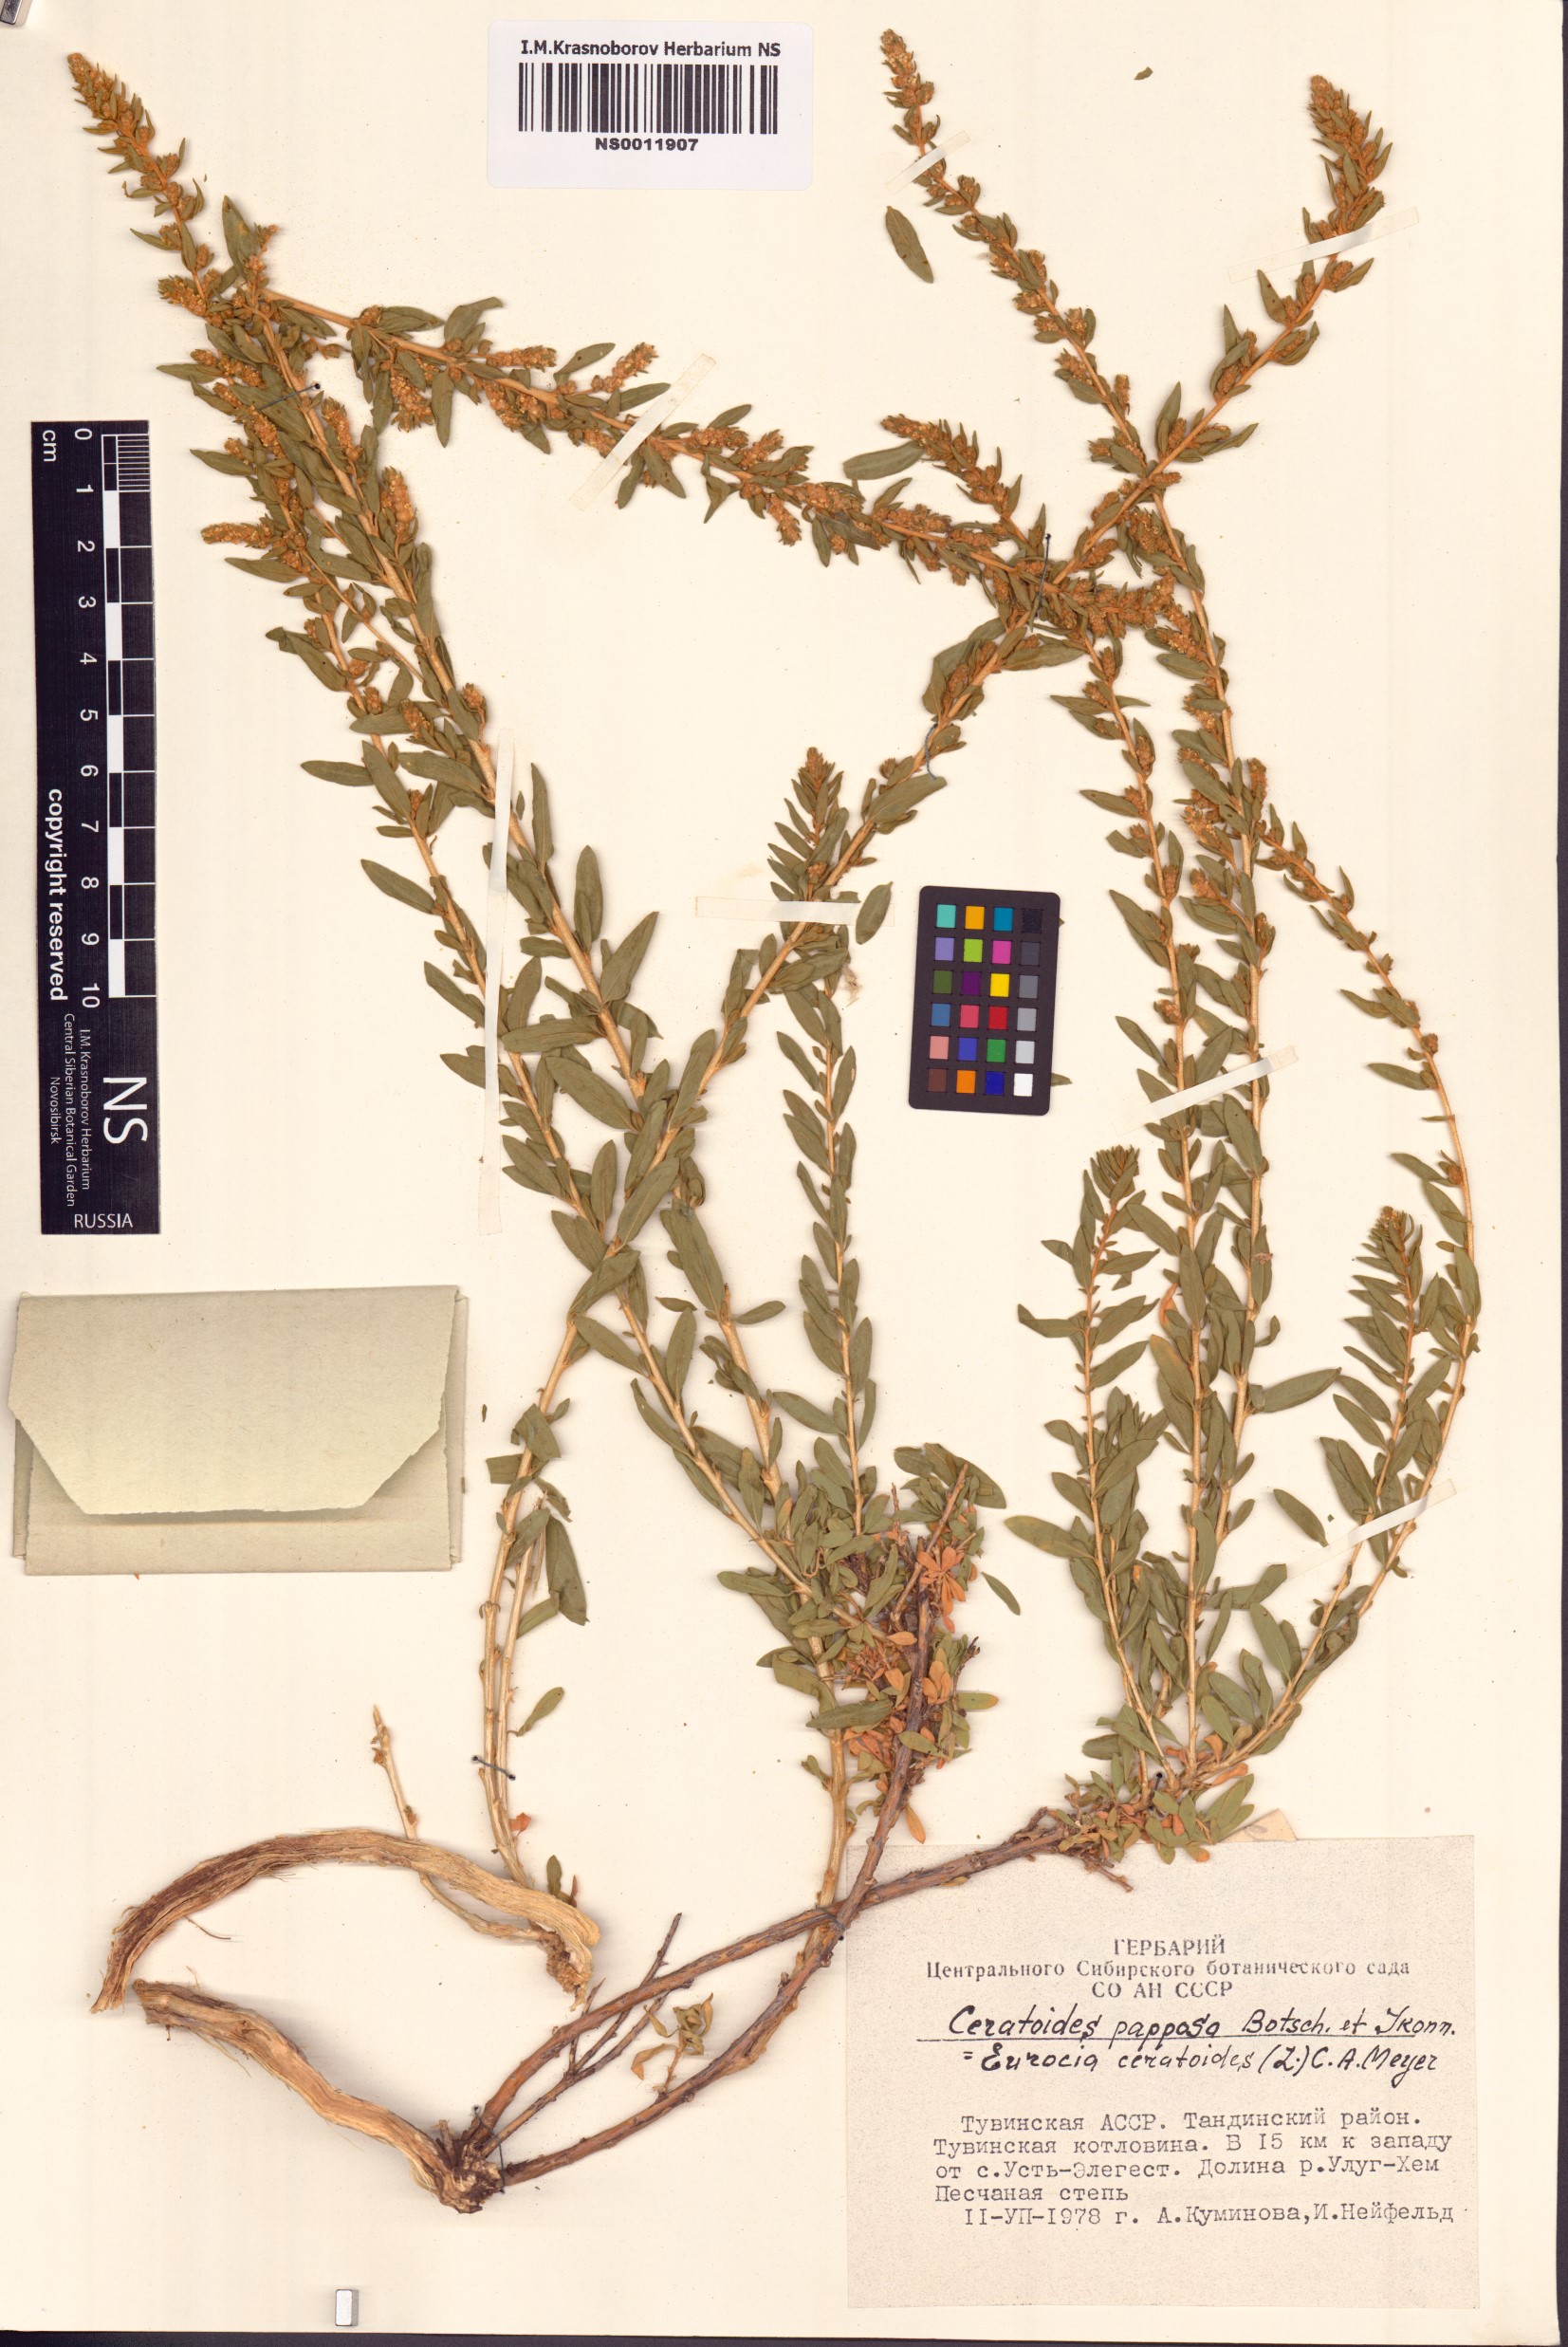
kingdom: Plantae
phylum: Tracheophyta
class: Magnoliopsida
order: Caryophyllales
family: Amaranthaceae
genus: Krascheninnikovia
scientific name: Krascheninnikovia ceratoides
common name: Pamirian winterfat
